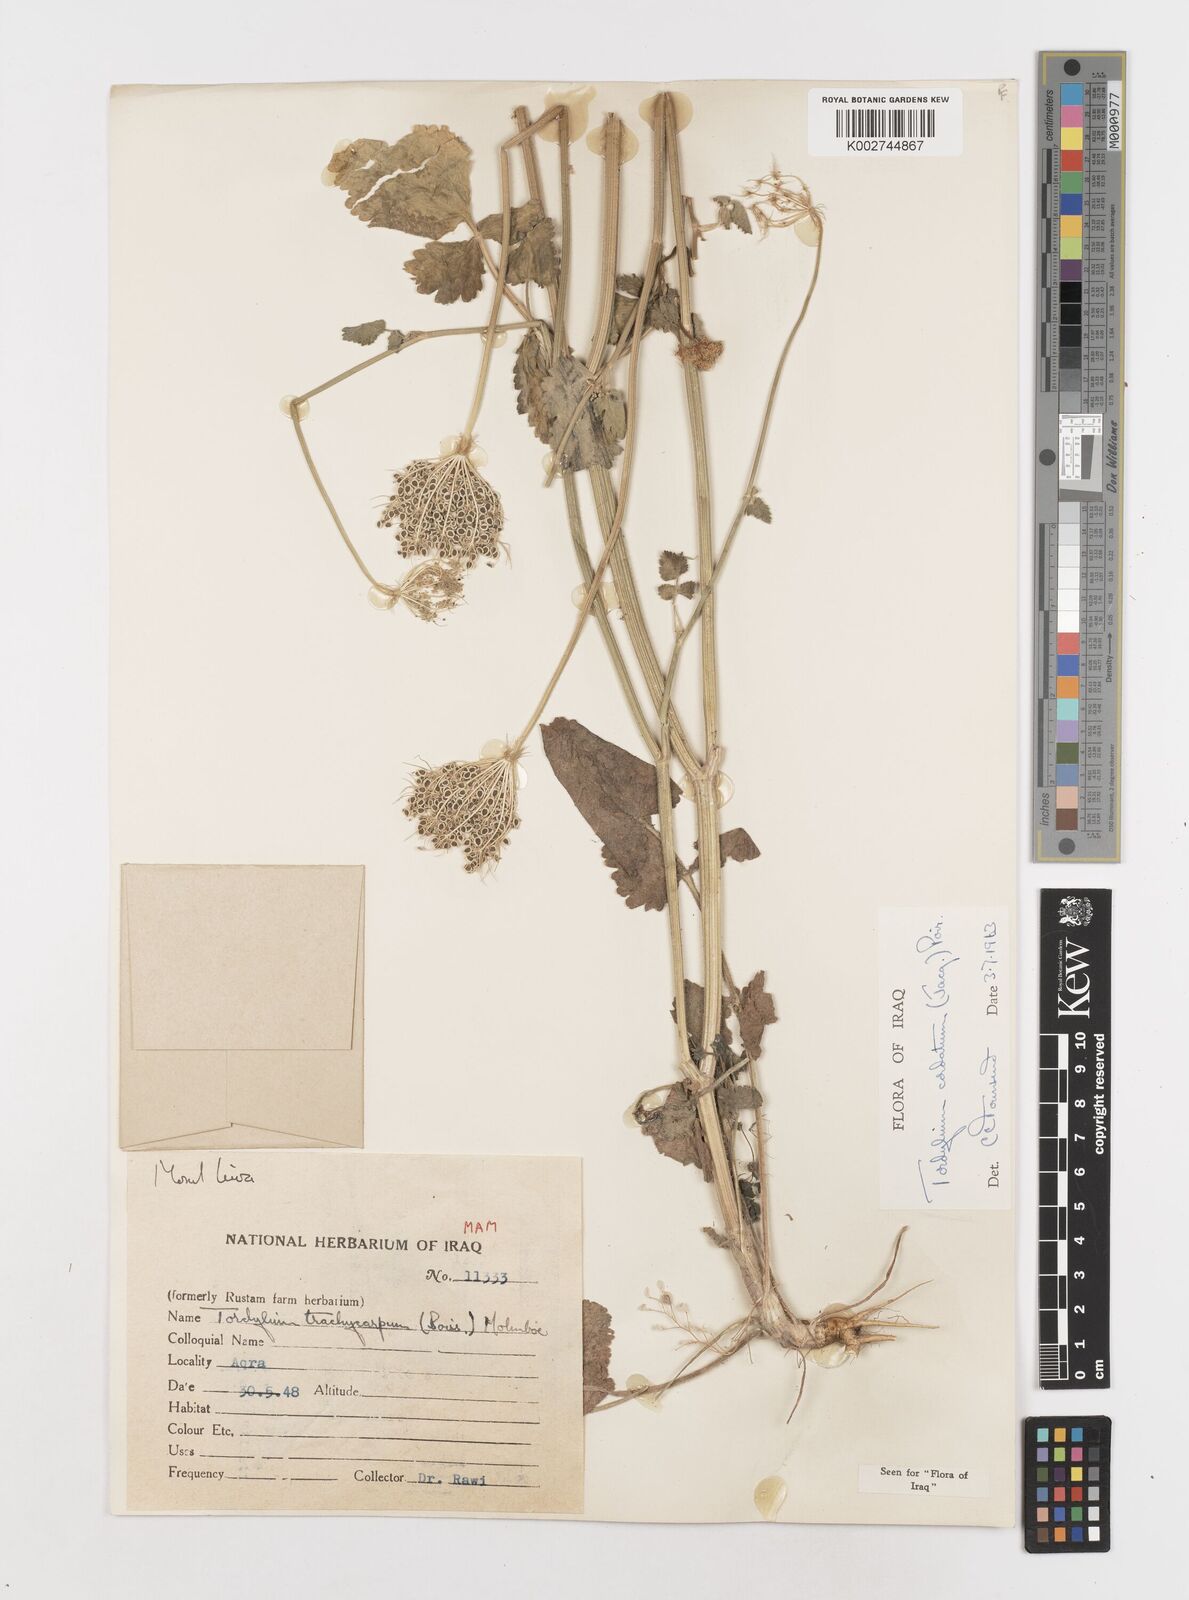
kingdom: Plantae
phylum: Tracheophyta
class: Magnoliopsida
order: Apiales
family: Apiaceae
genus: Ainsworthia
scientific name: Ainsworthia trachycarpa
